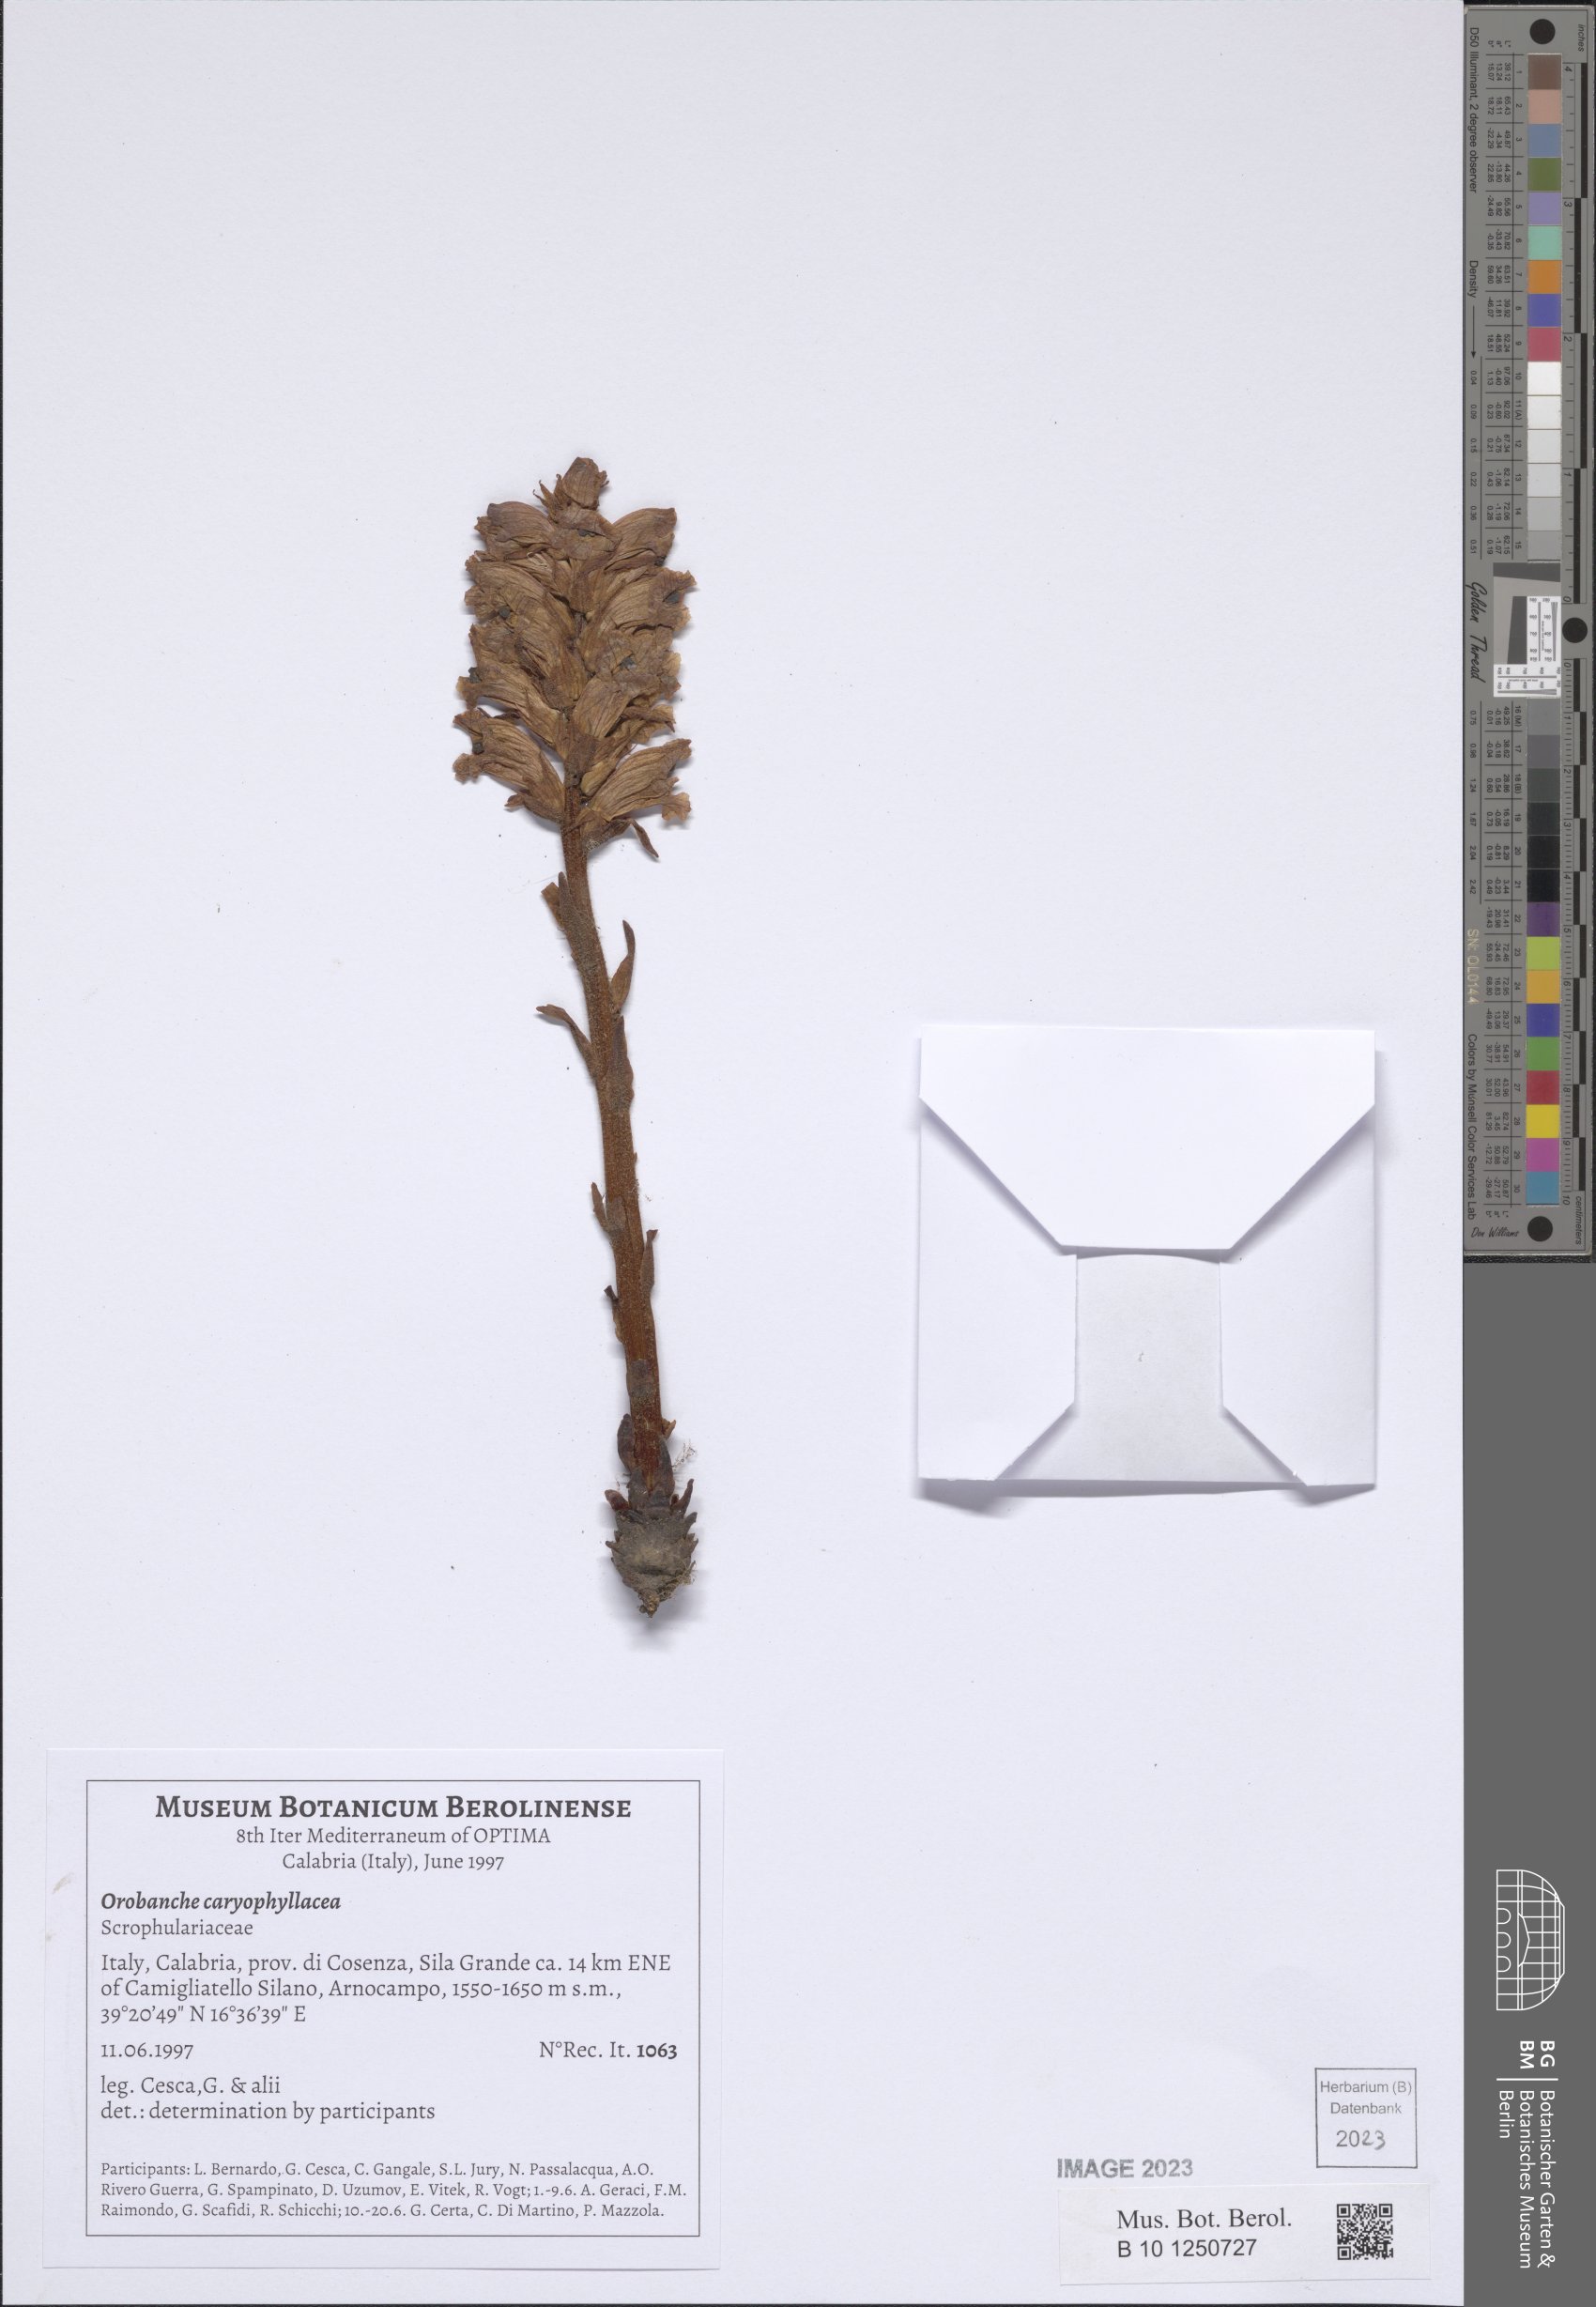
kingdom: Plantae
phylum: Tracheophyta
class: Magnoliopsida
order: Lamiales
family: Orobanchaceae
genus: Orobanche
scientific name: Orobanche caryophyllacea
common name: Bedstraw broomrape
